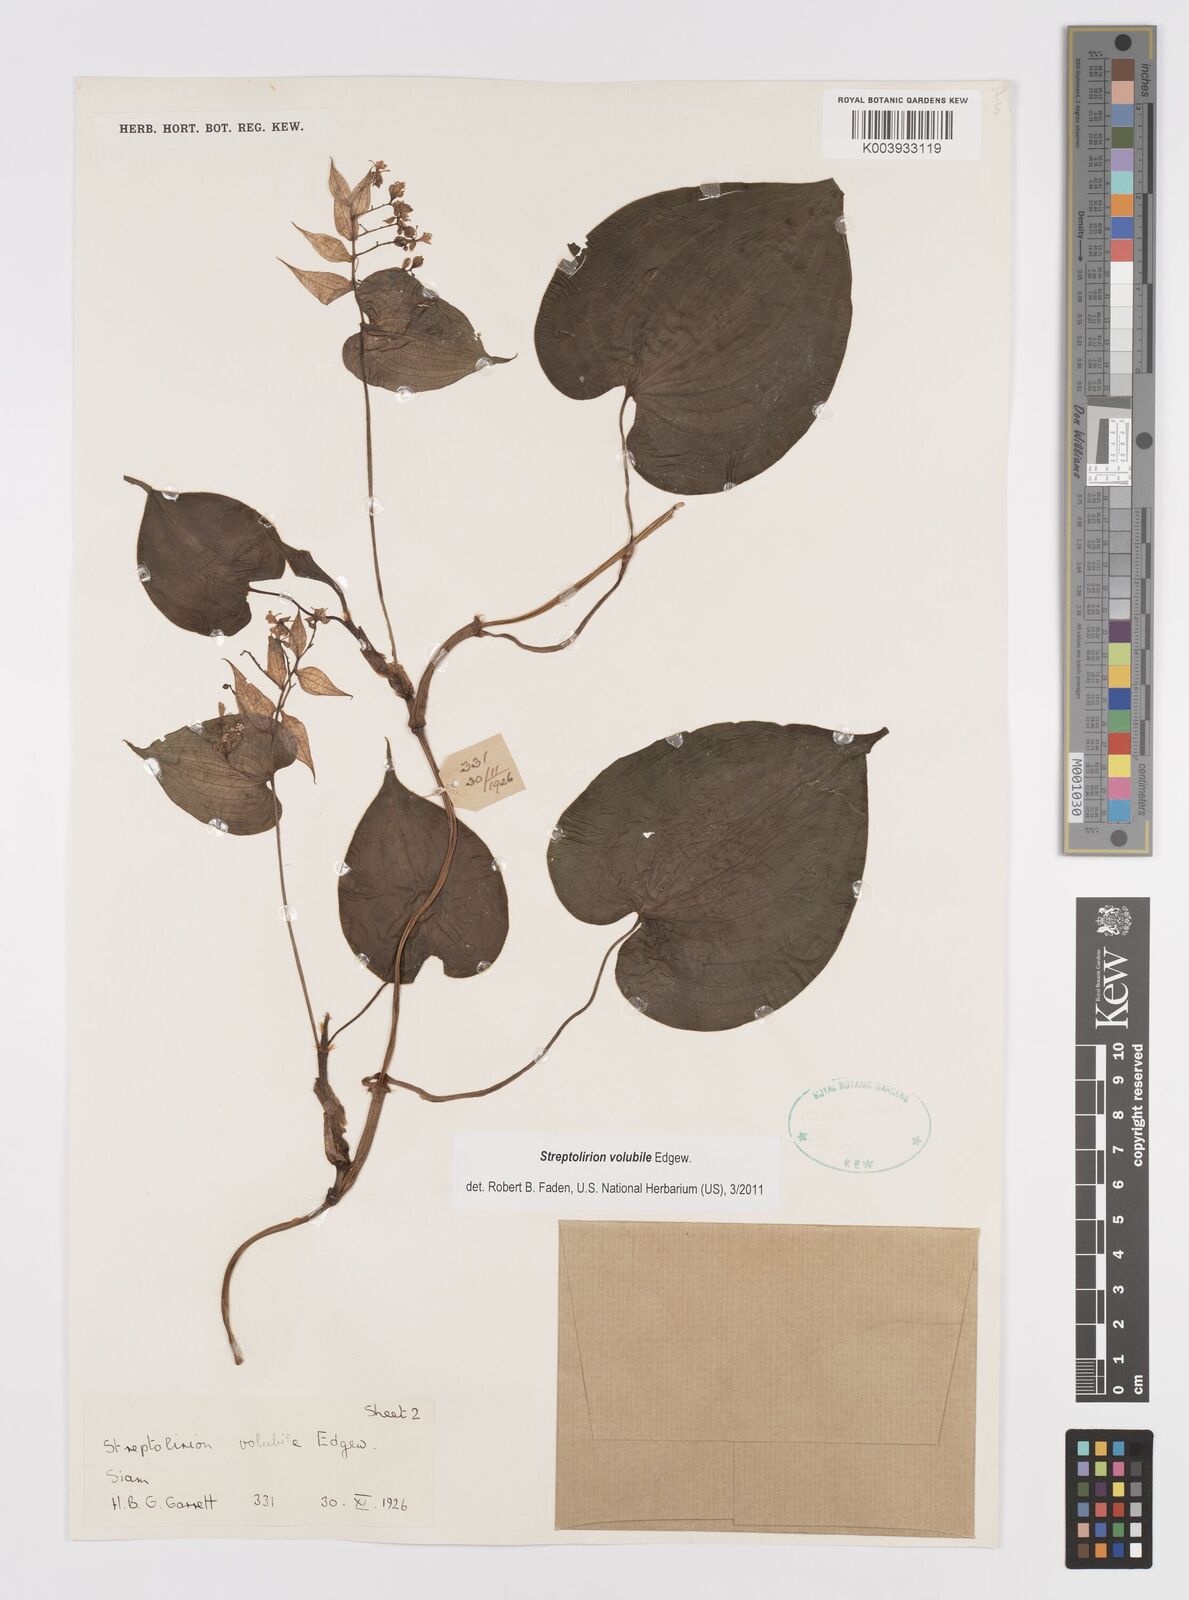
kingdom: Plantae
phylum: Tracheophyta
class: Liliopsida
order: Commelinales
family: Commelinaceae
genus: Streptolirion
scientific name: Streptolirion volubile
